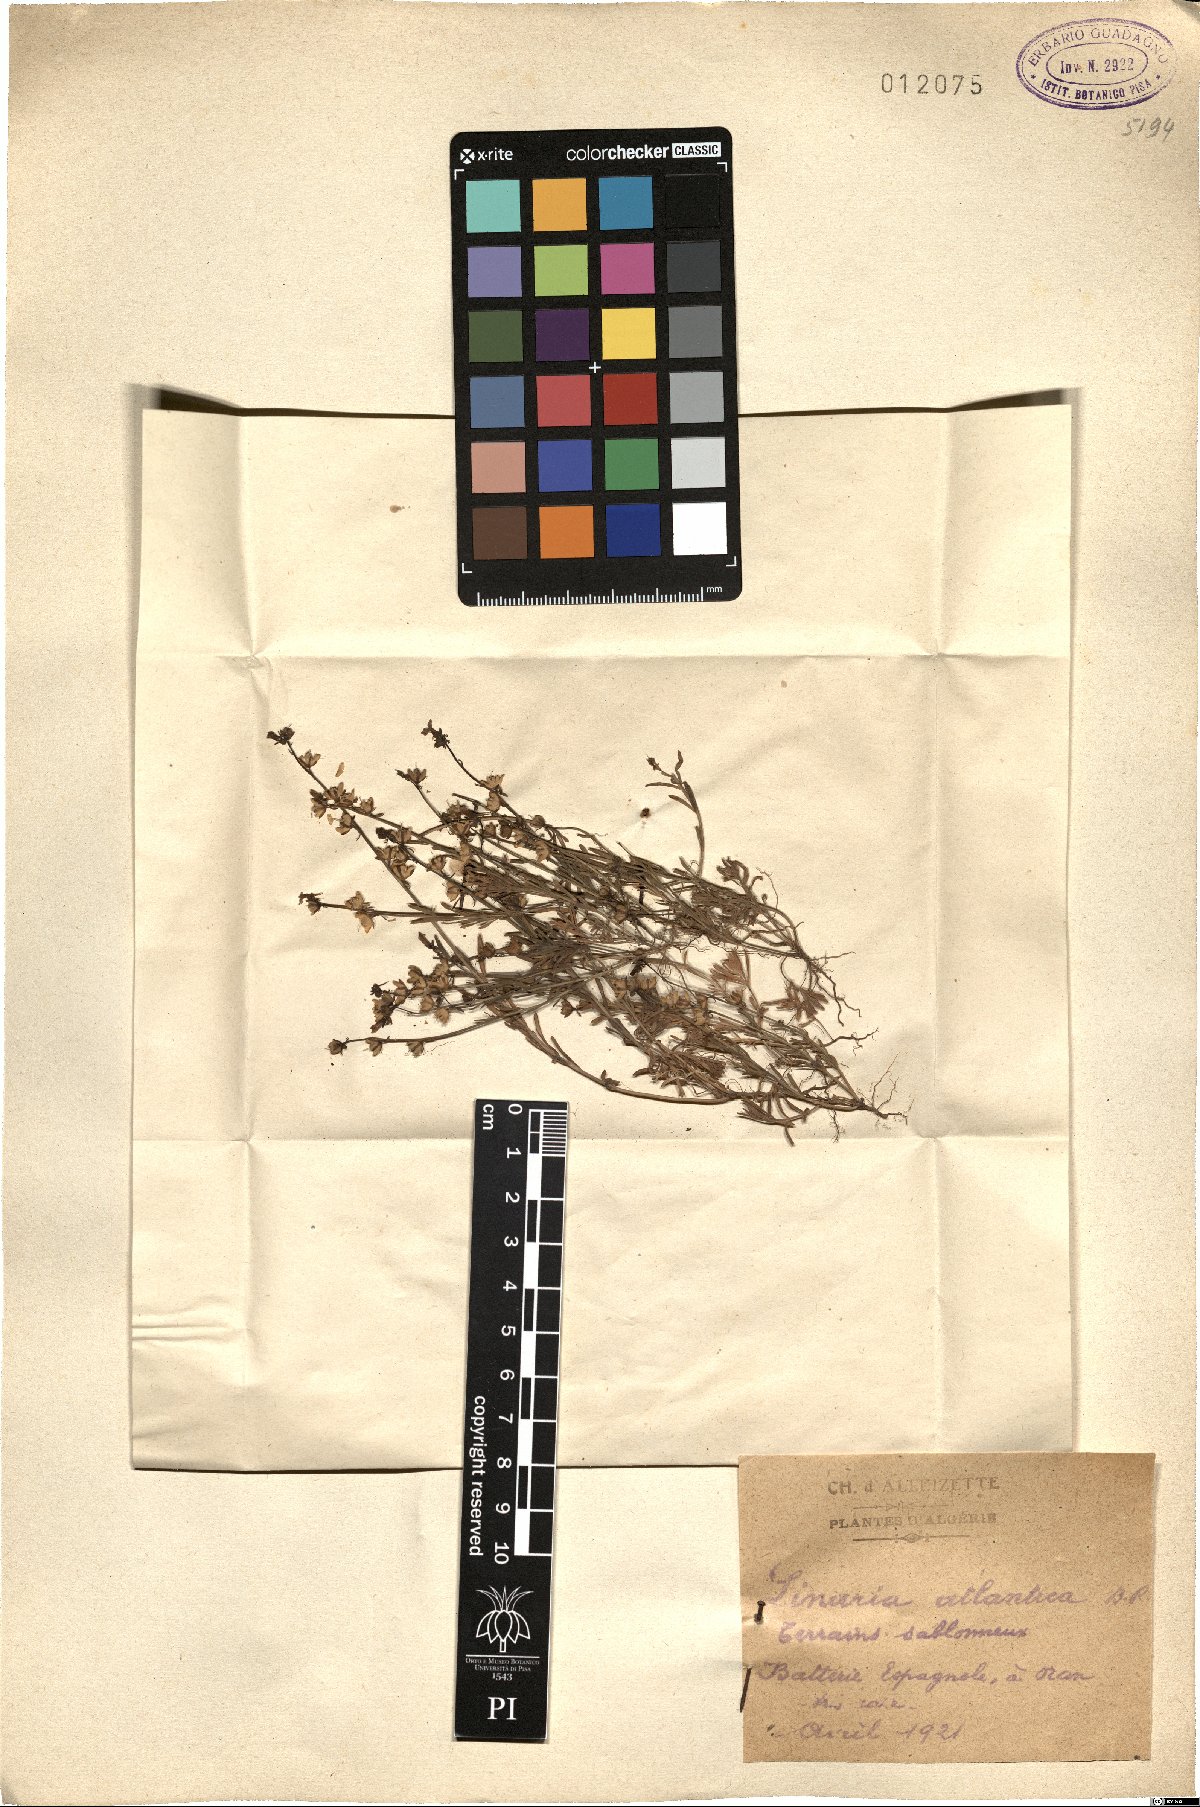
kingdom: Plantae
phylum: Tracheophyta
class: Magnoliopsida
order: Lamiales
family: Plantaginaceae
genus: Linaria
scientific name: Linaria atlantica
